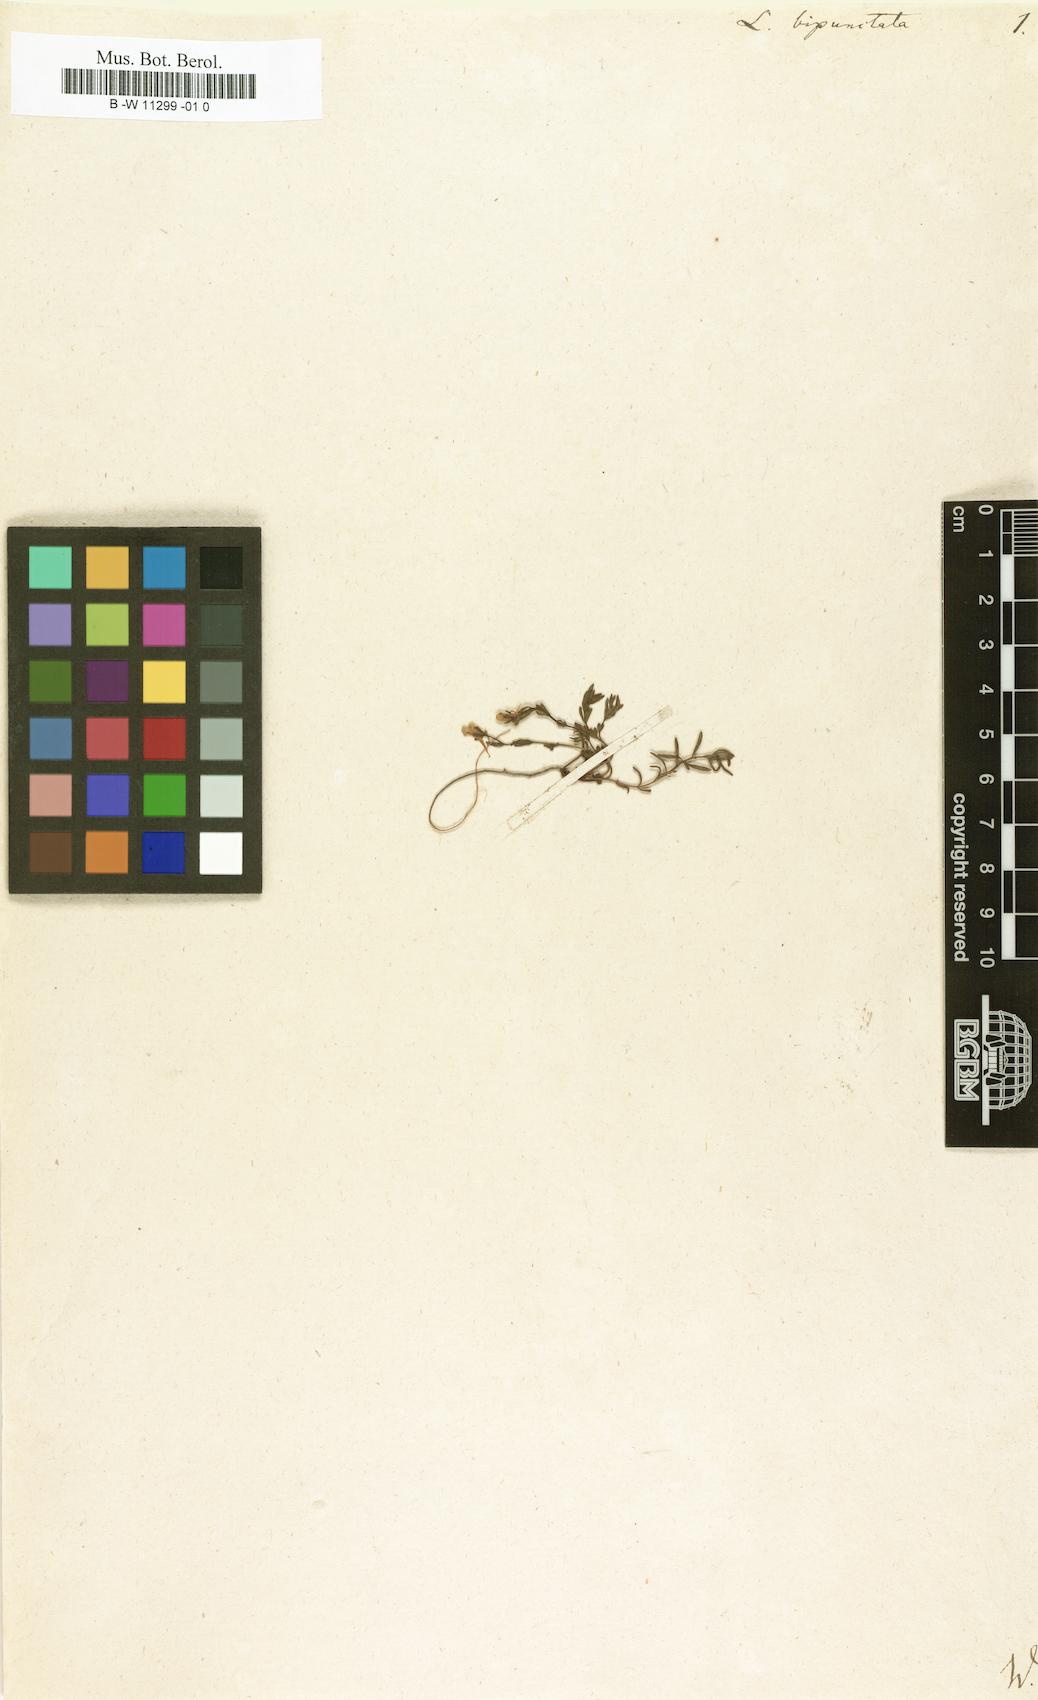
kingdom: Plantae
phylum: Tracheophyta
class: Magnoliopsida
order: Lamiales
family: Plantaginaceae
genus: Linaria
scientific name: Linaria bipunctata
